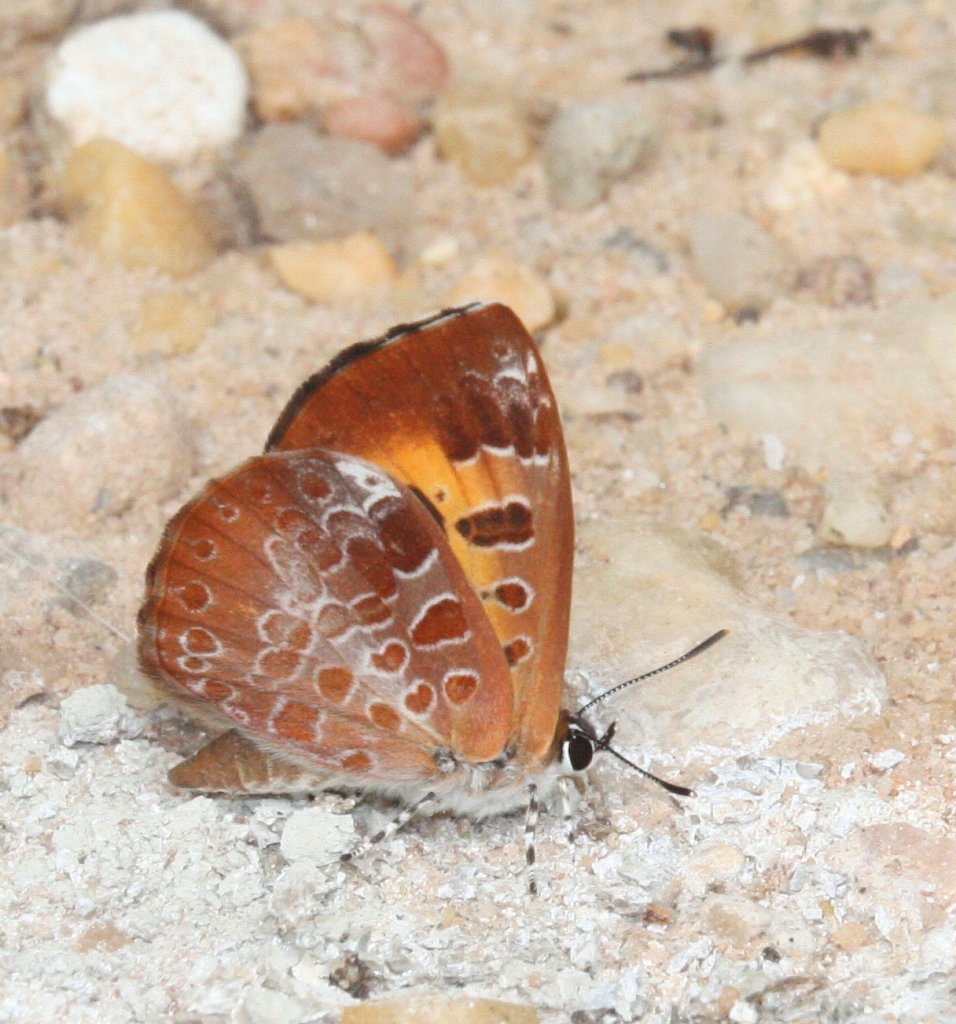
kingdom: Animalia
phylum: Arthropoda
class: Insecta
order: Lepidoptera
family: Lycaenidae
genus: Feniseca
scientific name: Feniseca tarquinius
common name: Harvester
